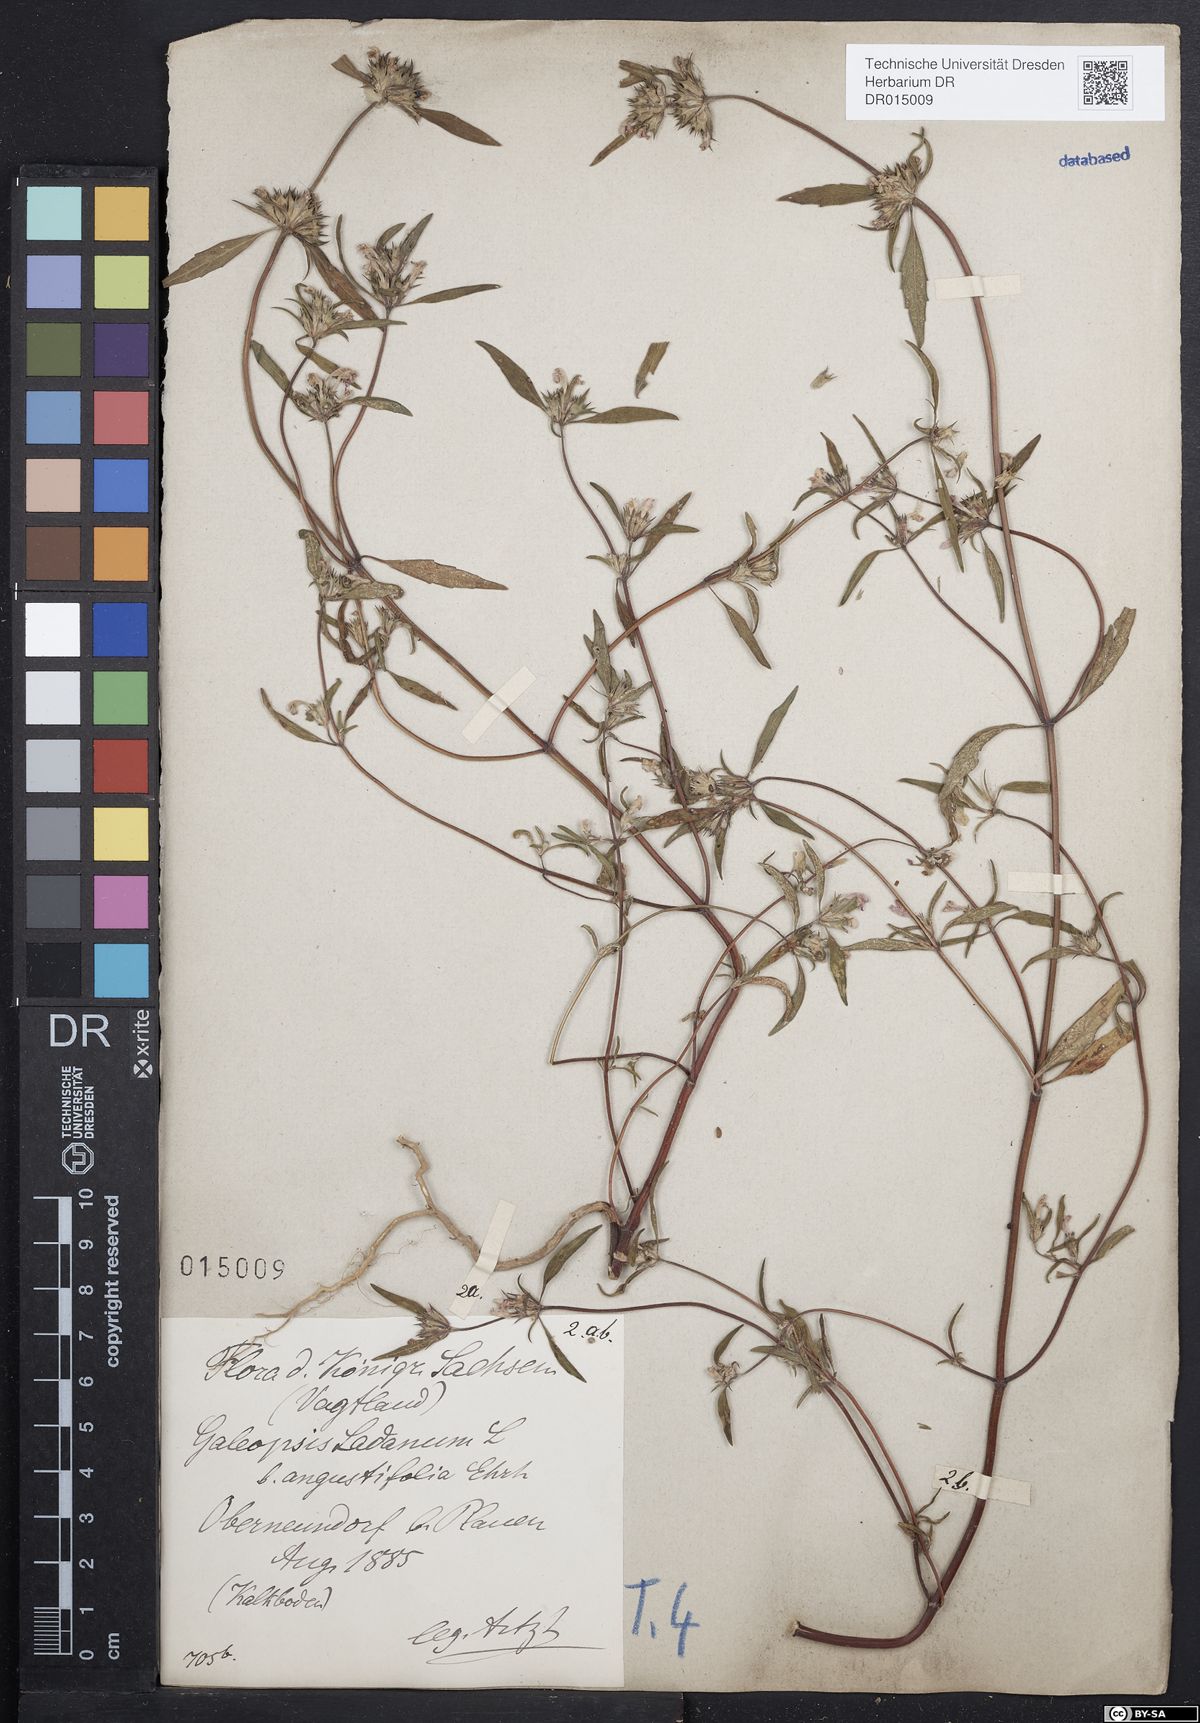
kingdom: Plantae
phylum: Tracheophyta
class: Magnoliopsida
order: Lamiales
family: Lamiaceae
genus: Galeopsis
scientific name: Galeopsis angustifolia
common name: Red hemp-nettle
